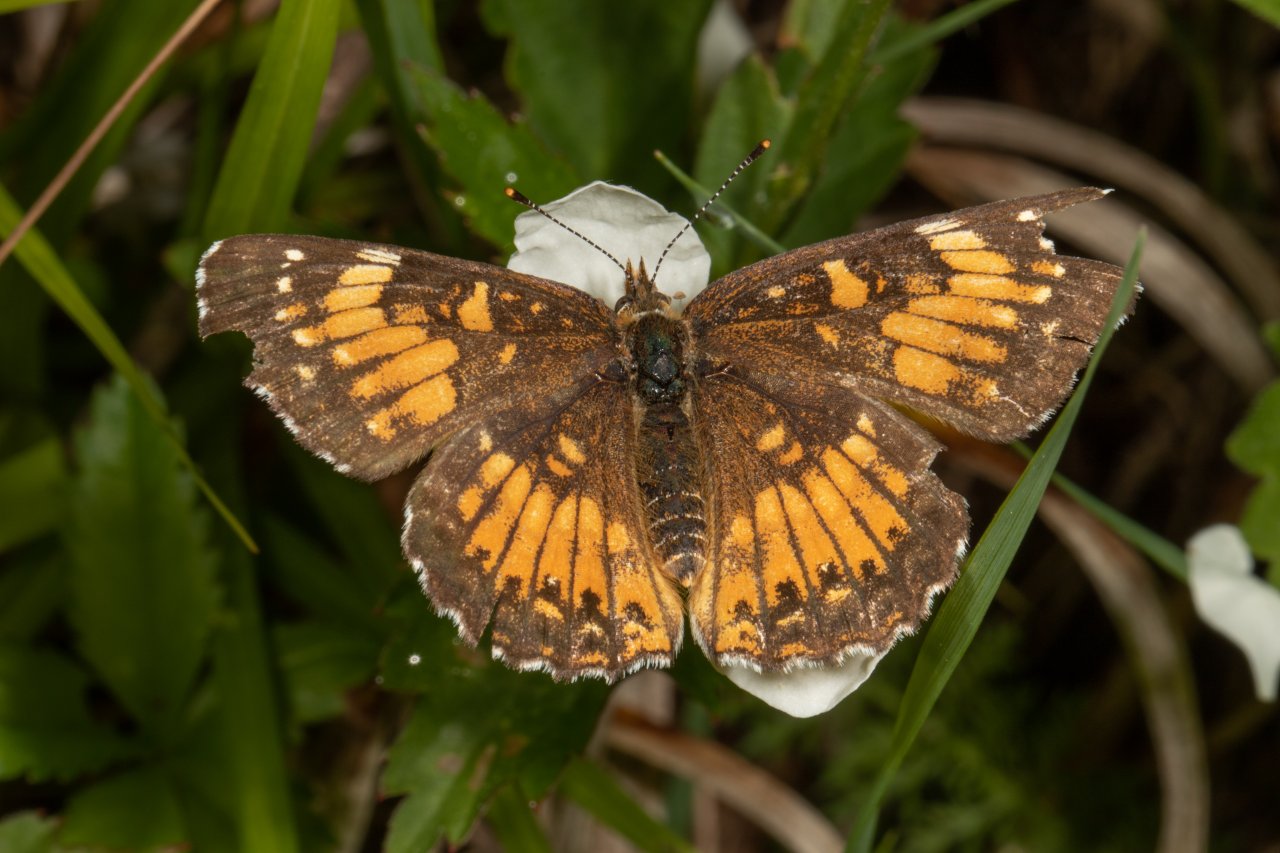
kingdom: Animalia
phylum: Arthropoda
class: Insecta
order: Lepidoptera
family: Nymphalidae
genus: Chlosyne
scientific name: Chlosyne harrisii
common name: Harris's Checkerspot
